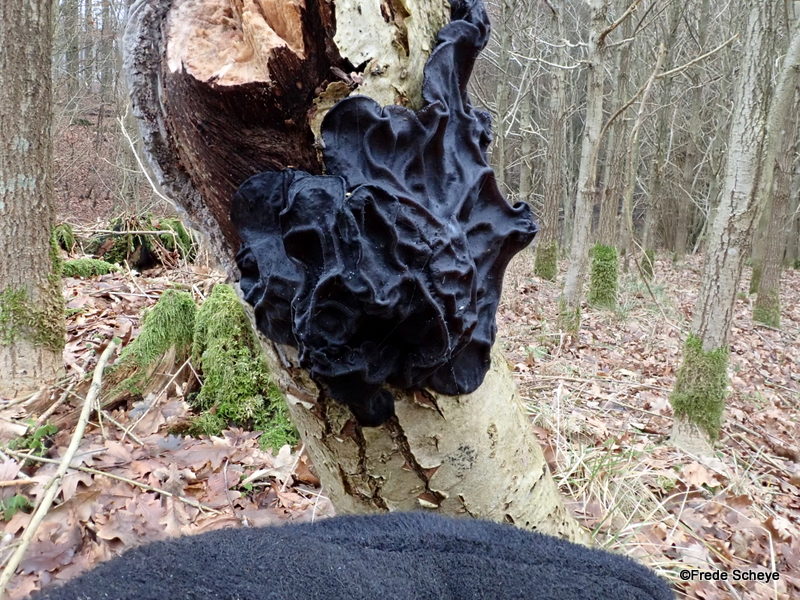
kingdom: Fungi
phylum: Basidiomycota
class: Agaricomycetes
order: Auriculariales
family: Auriculariaceae
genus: Exidia
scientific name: Exidia glandulosa
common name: ege-bævretop
